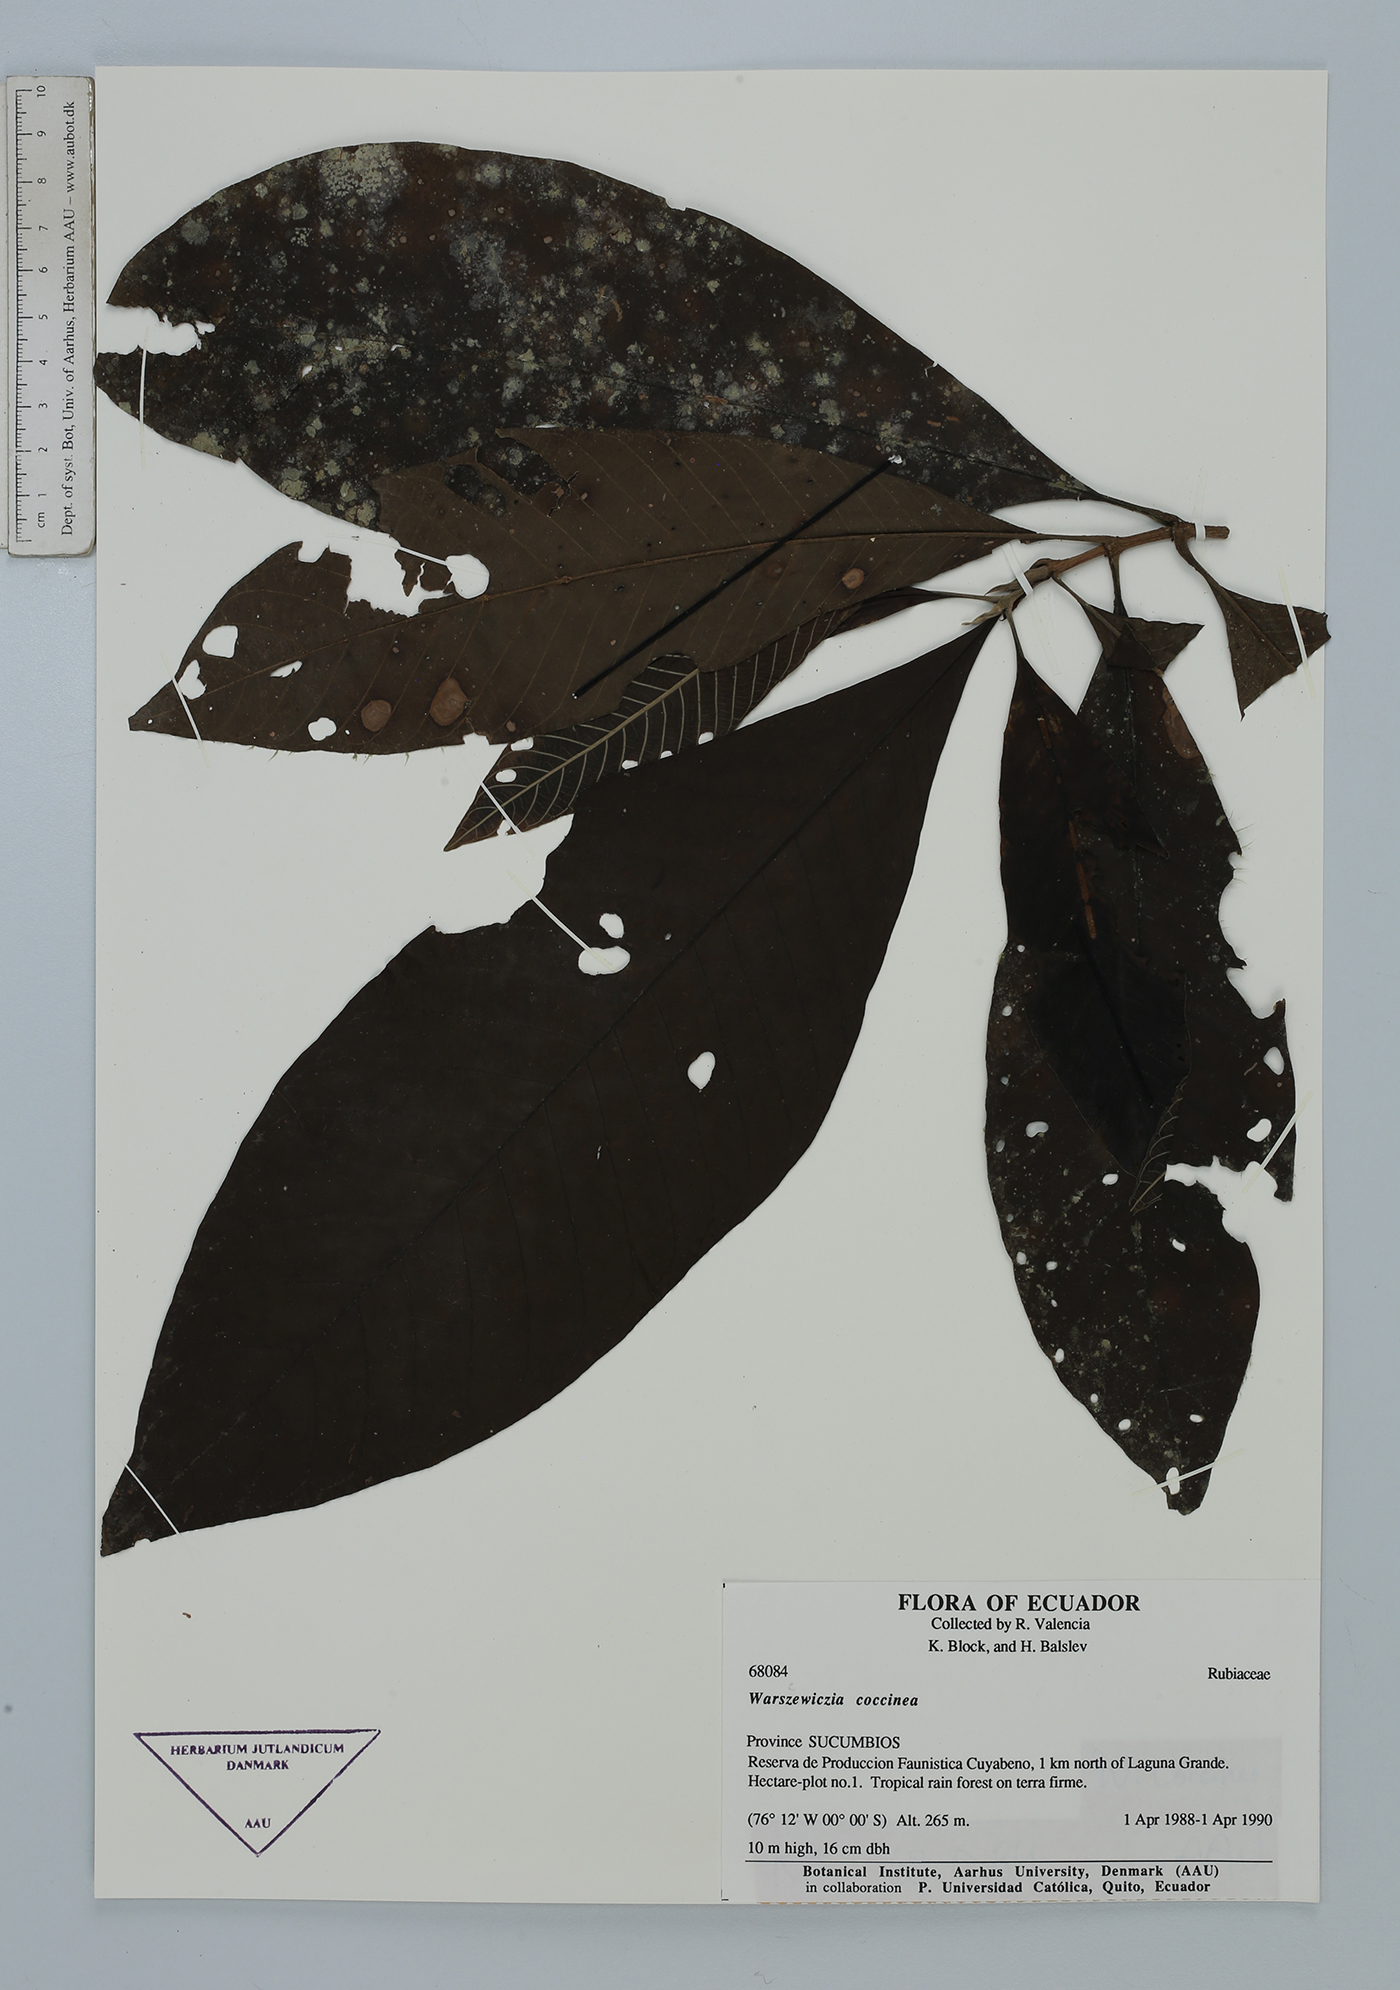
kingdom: Plantae
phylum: Tracheophyta
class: Magnoliopsida
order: Gentianales
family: Rubiaceae
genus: Warszewiczia
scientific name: Warszewiczia coccinea
